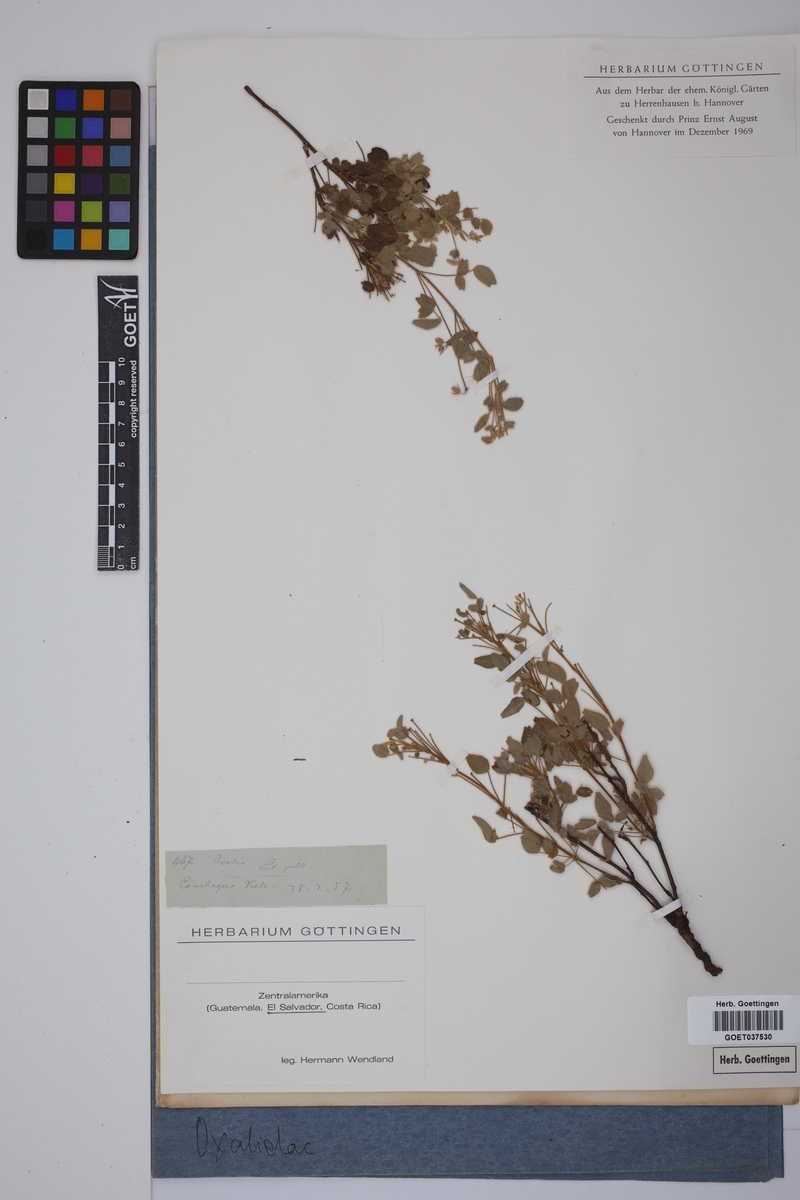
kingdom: Plantae
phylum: Tracheophyta
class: Magnoliopsida
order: Oxalidales
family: Oxalidaceae
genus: Oxalis
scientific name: Oxalis
